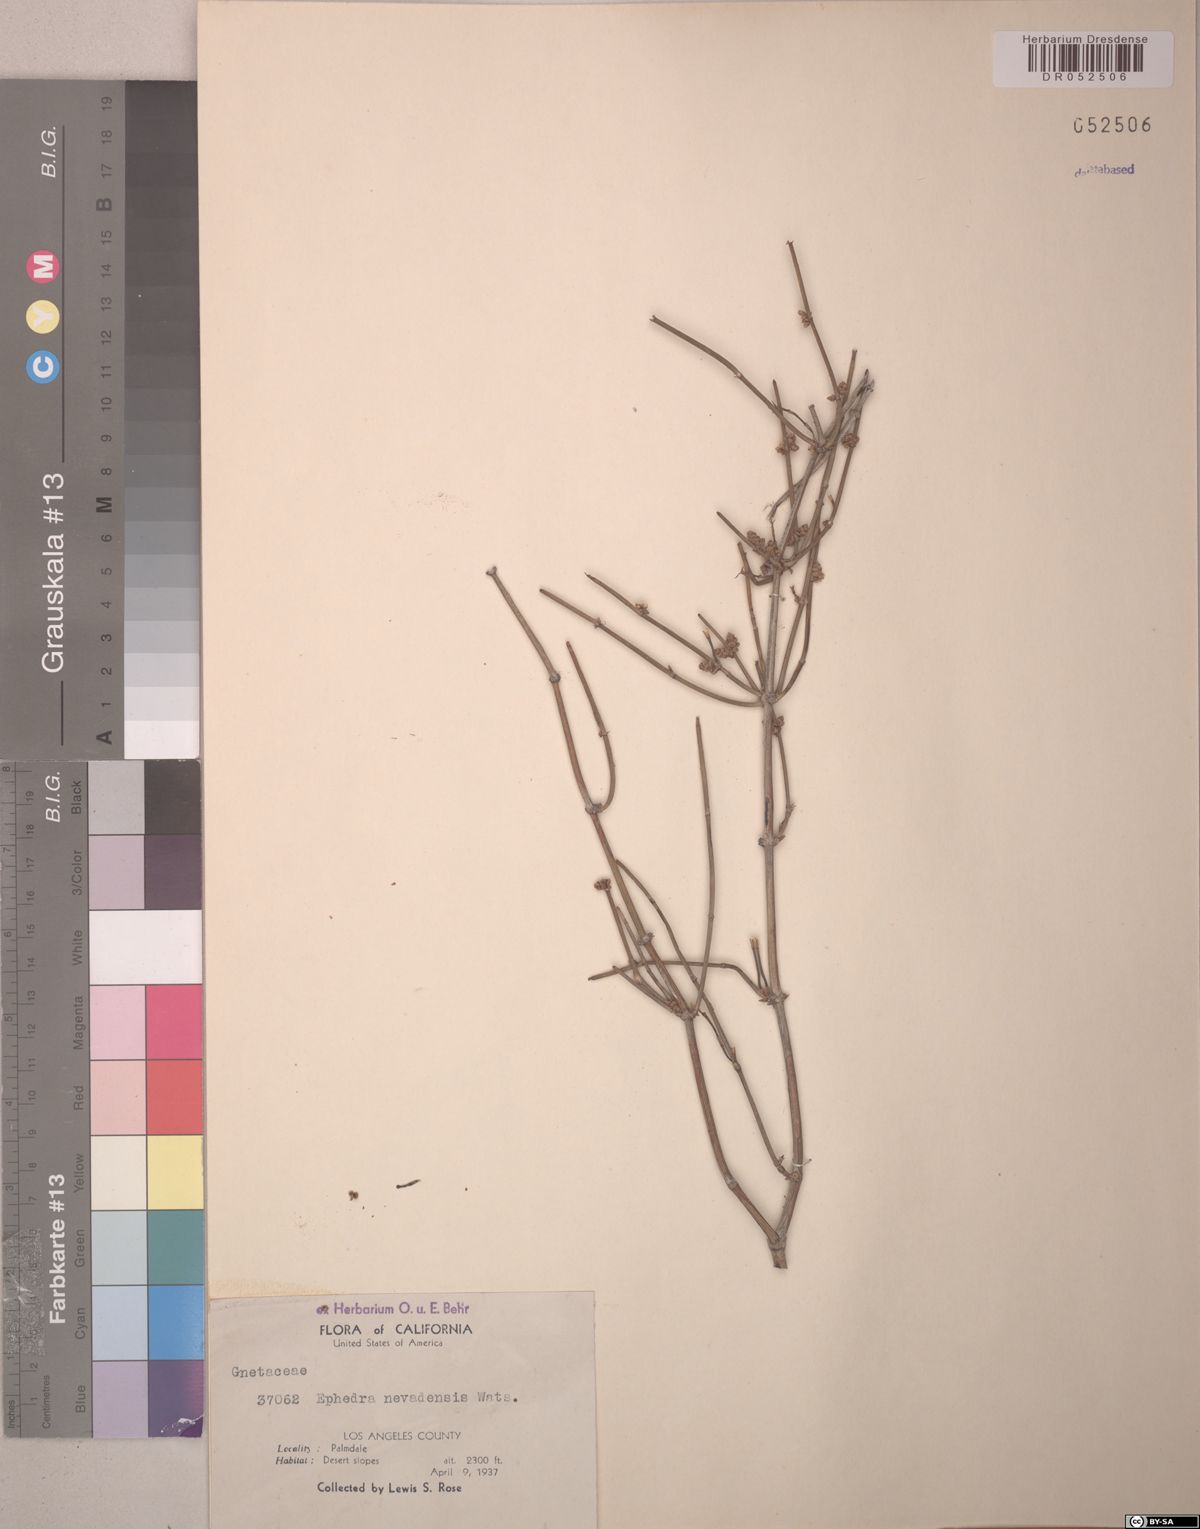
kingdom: Plantae
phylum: Tracheophyta
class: Gnetopsida
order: Ephedrales
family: Ephedraceae
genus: Ephedra
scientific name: Ephedra nevadensis
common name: Gray ephedra
